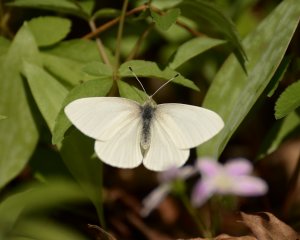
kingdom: Animalia
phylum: Arthropoda
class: Insecta
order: Lepidoptera
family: Pieridae
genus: Pieris
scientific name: Pieris virginiensis
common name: West Virginia White
